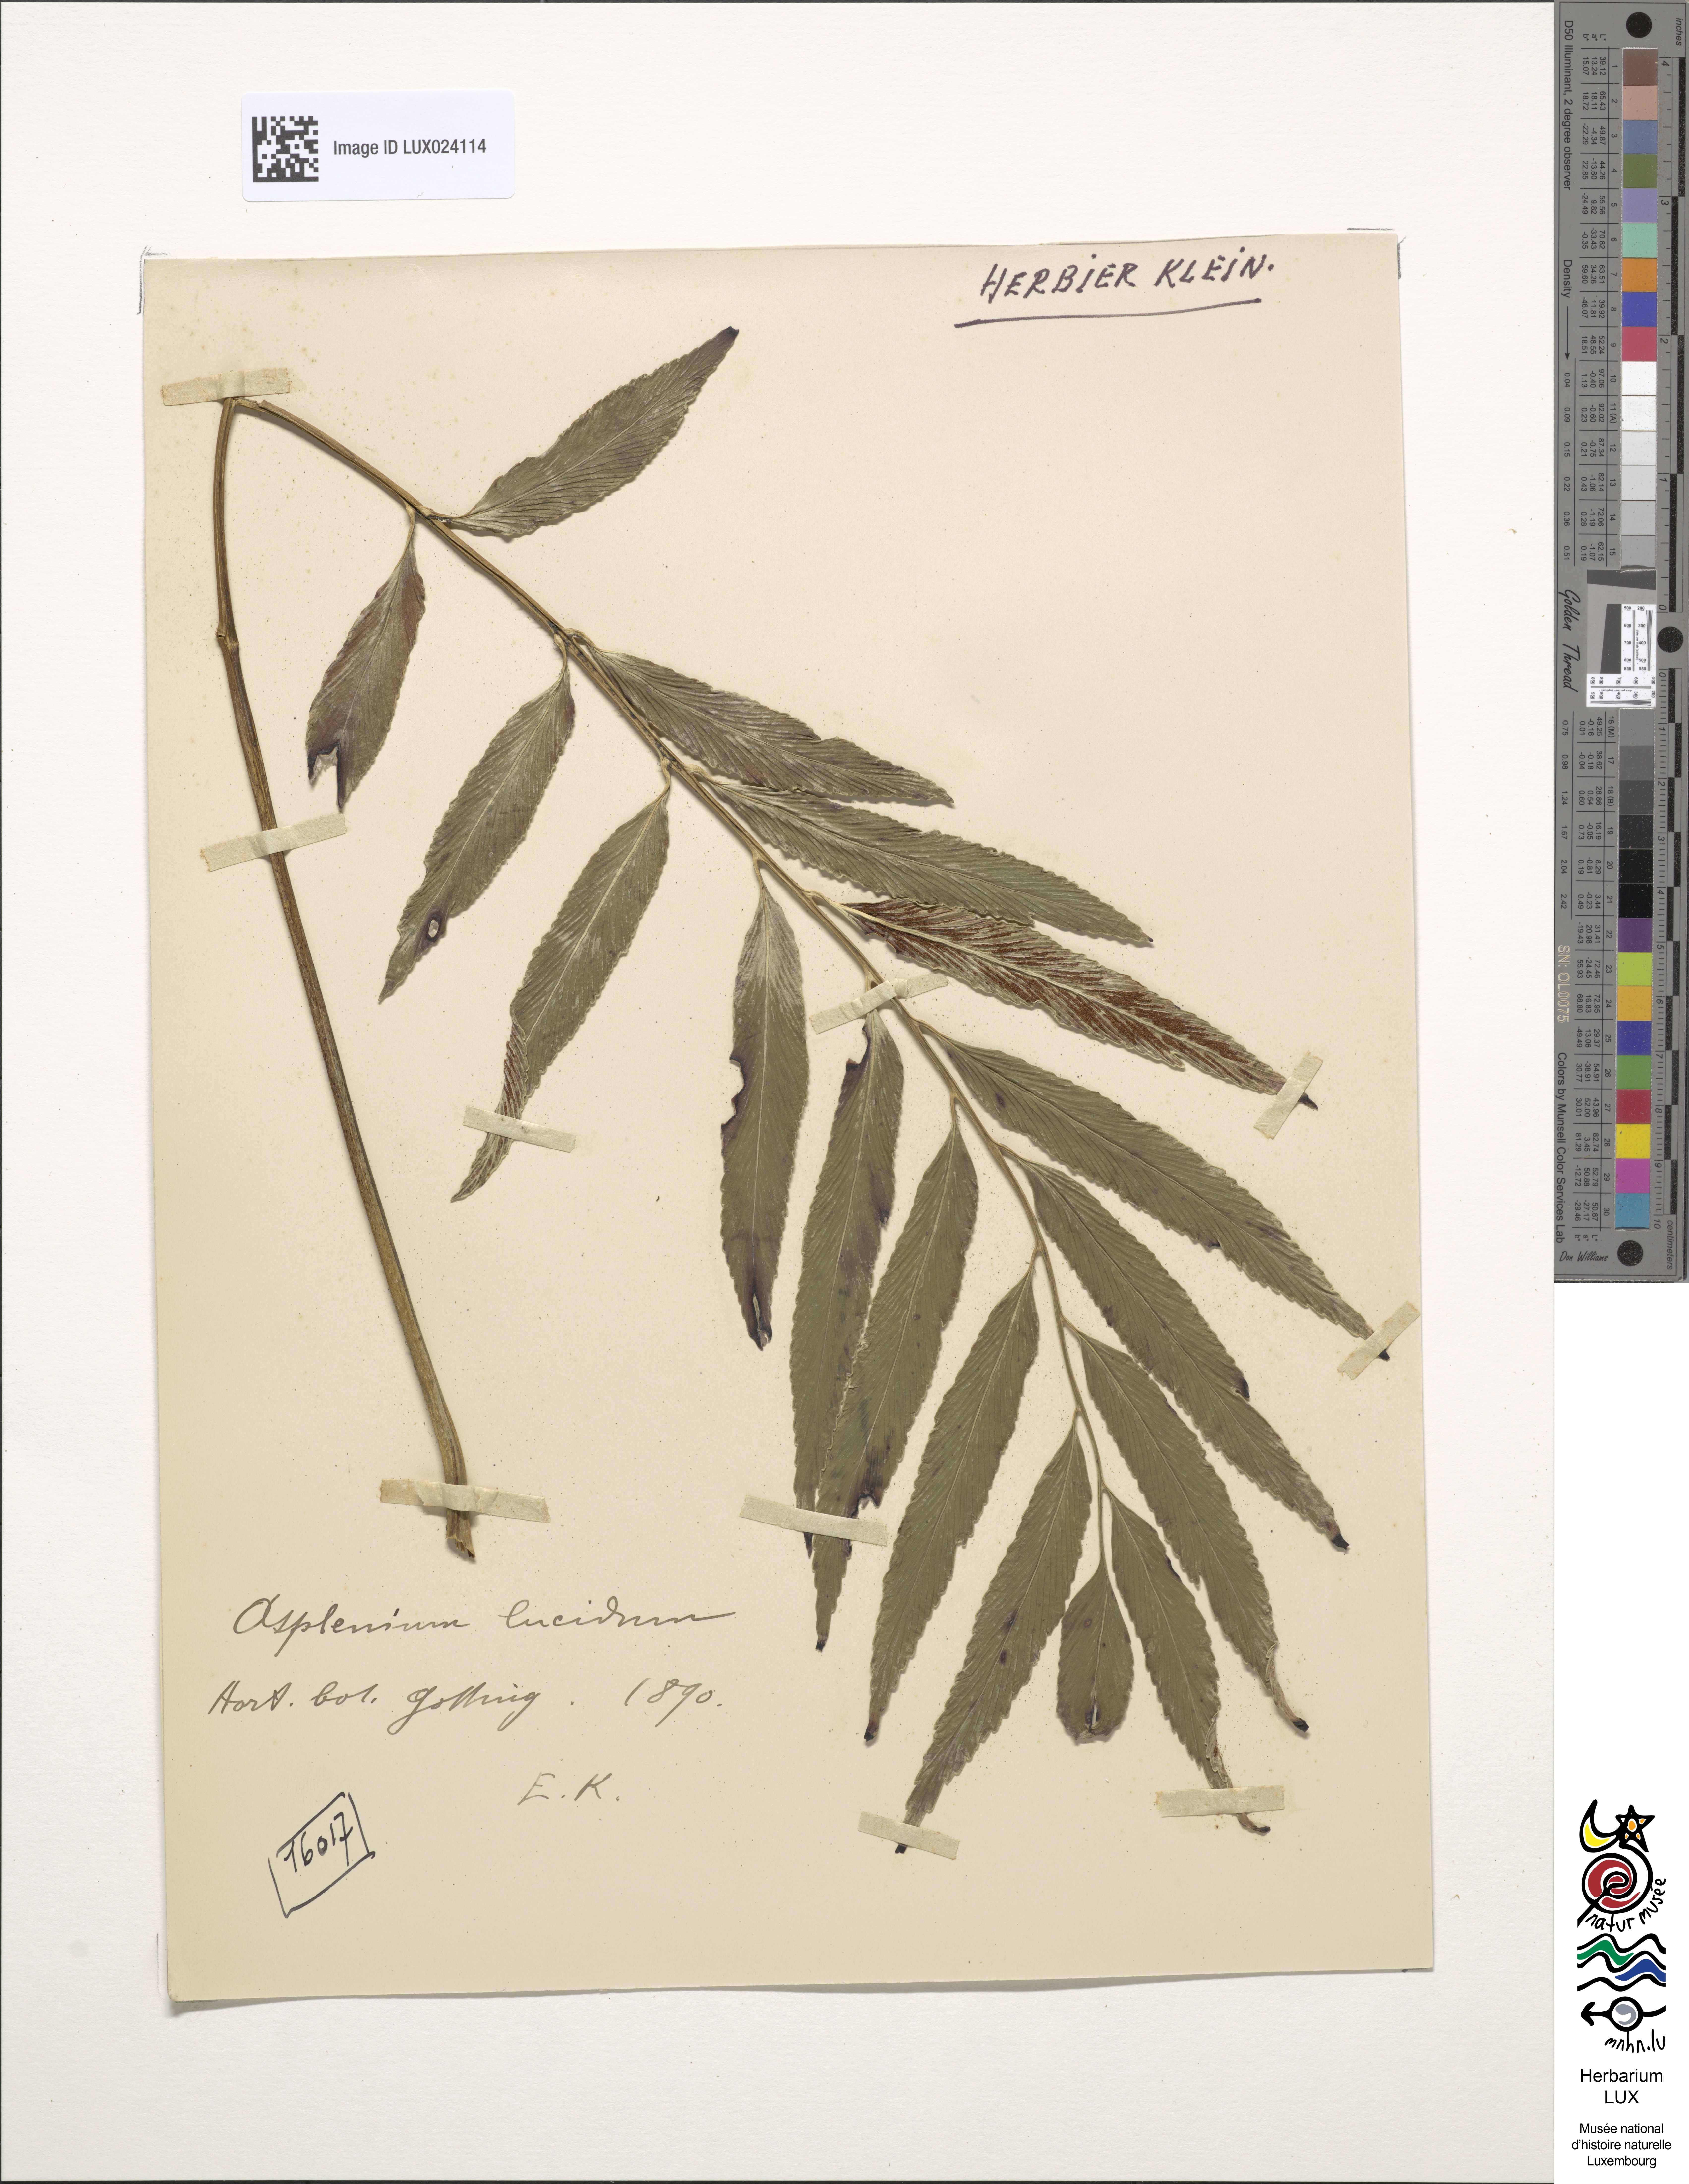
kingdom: Plantae
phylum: Tracheophyta
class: Polypodiopsida
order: Polypodiales
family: Aspleniaceae
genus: Asplenium
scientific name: Asplenium
